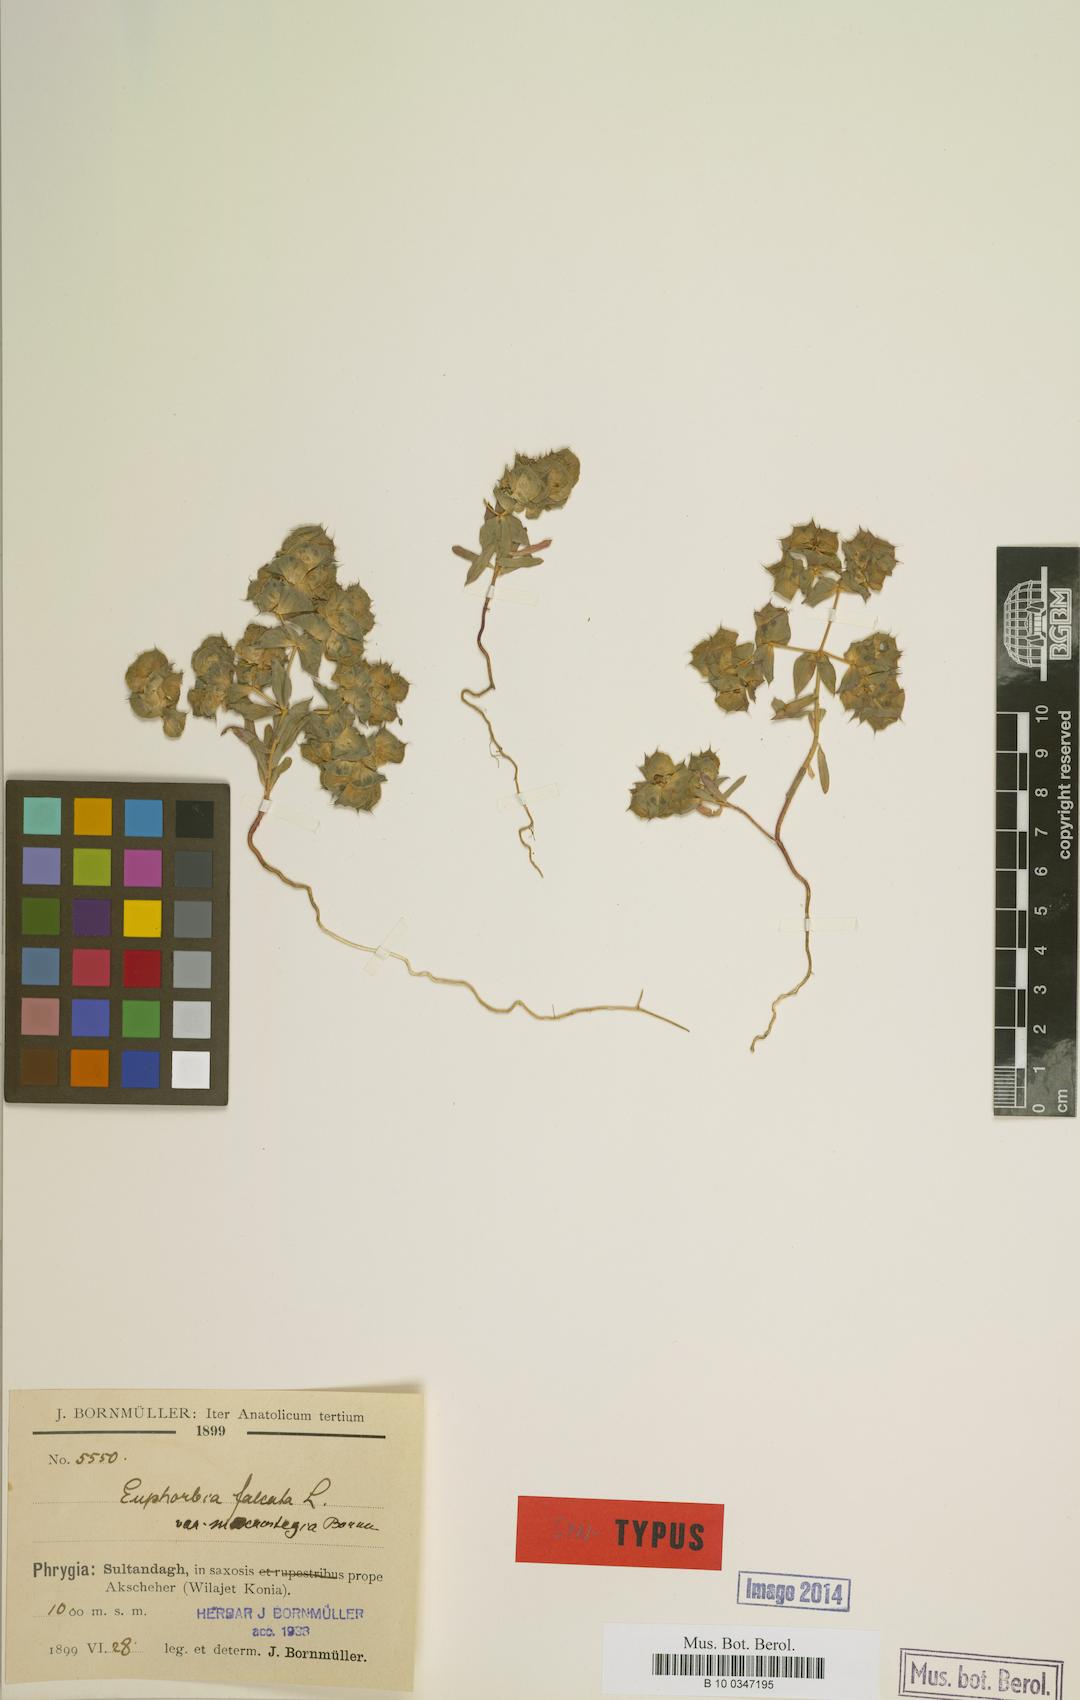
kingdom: Plantae
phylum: Tracheophyta
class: Magnoliopsida
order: Malpighiales
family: Euphorbiaceae
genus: Euphorbia
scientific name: Euphorbia falcata
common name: Sickle spurge
